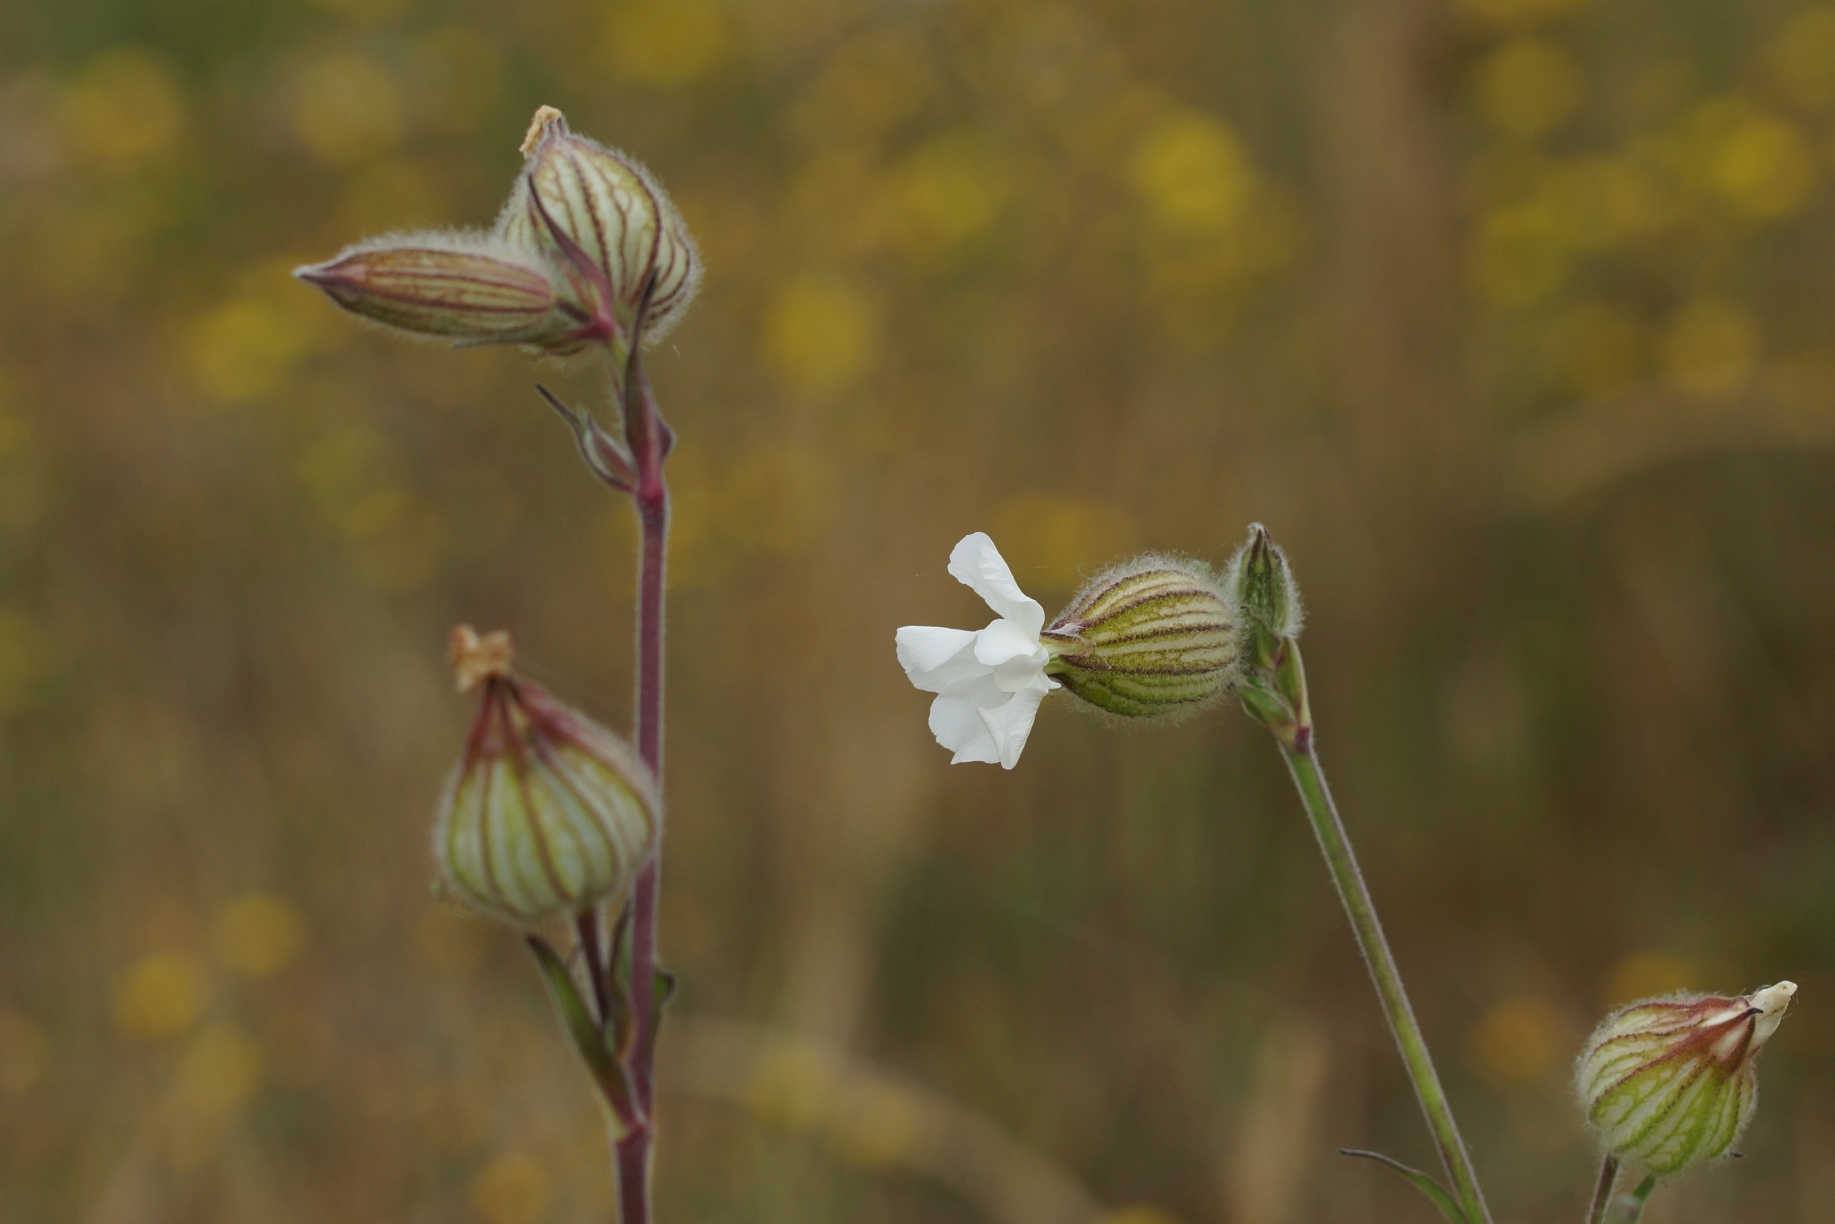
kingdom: Plantae
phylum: Tracheophyta
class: Magnoliopsida
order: Caryophyllales
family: Caryophyllaceae
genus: Silene
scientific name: Silene latifolia
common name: Aftenpragtstjerne (underart)
